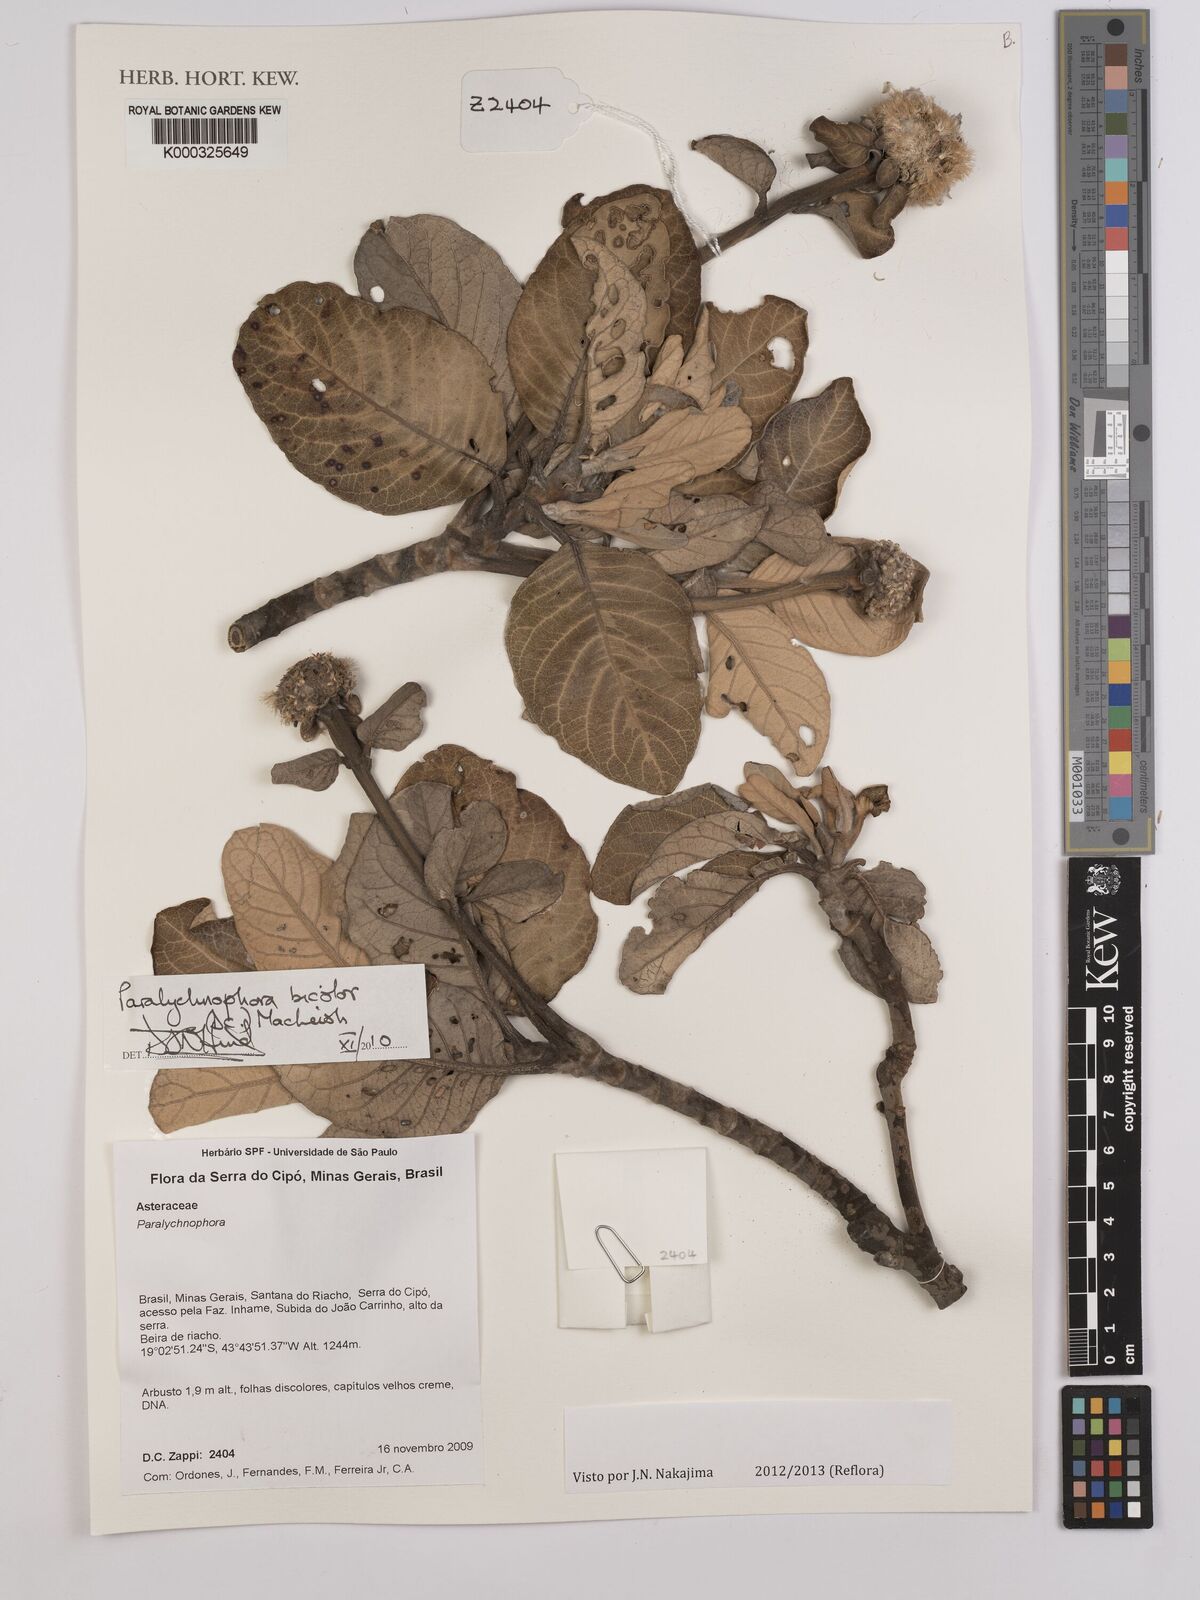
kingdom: Plantae
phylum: Tracheophyta
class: Magnoliopsida
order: Asterales
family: Asteraceae
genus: Paralychnophora
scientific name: Paralychnophora bicolor
